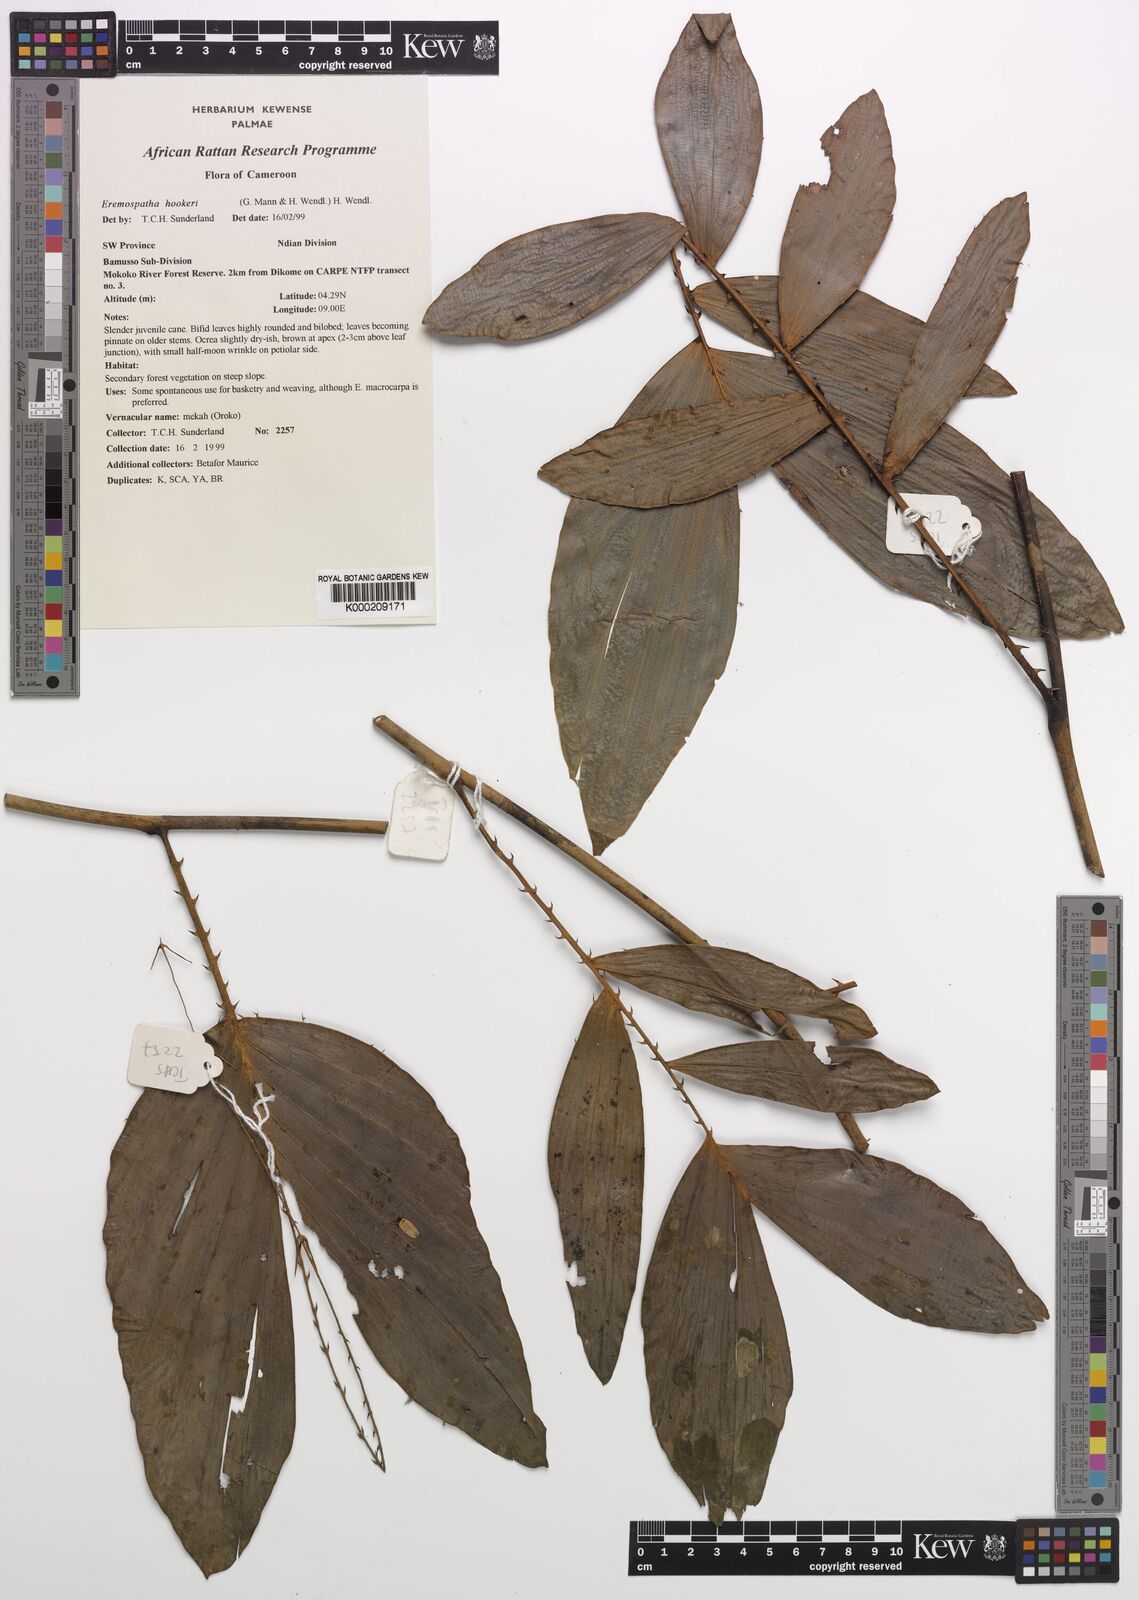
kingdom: Plantae
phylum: Tracheophyta
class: Liliopsida
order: Arecales
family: Arecaceae
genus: Eremospatha
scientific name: Eremospatha hookeri
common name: Rattan
